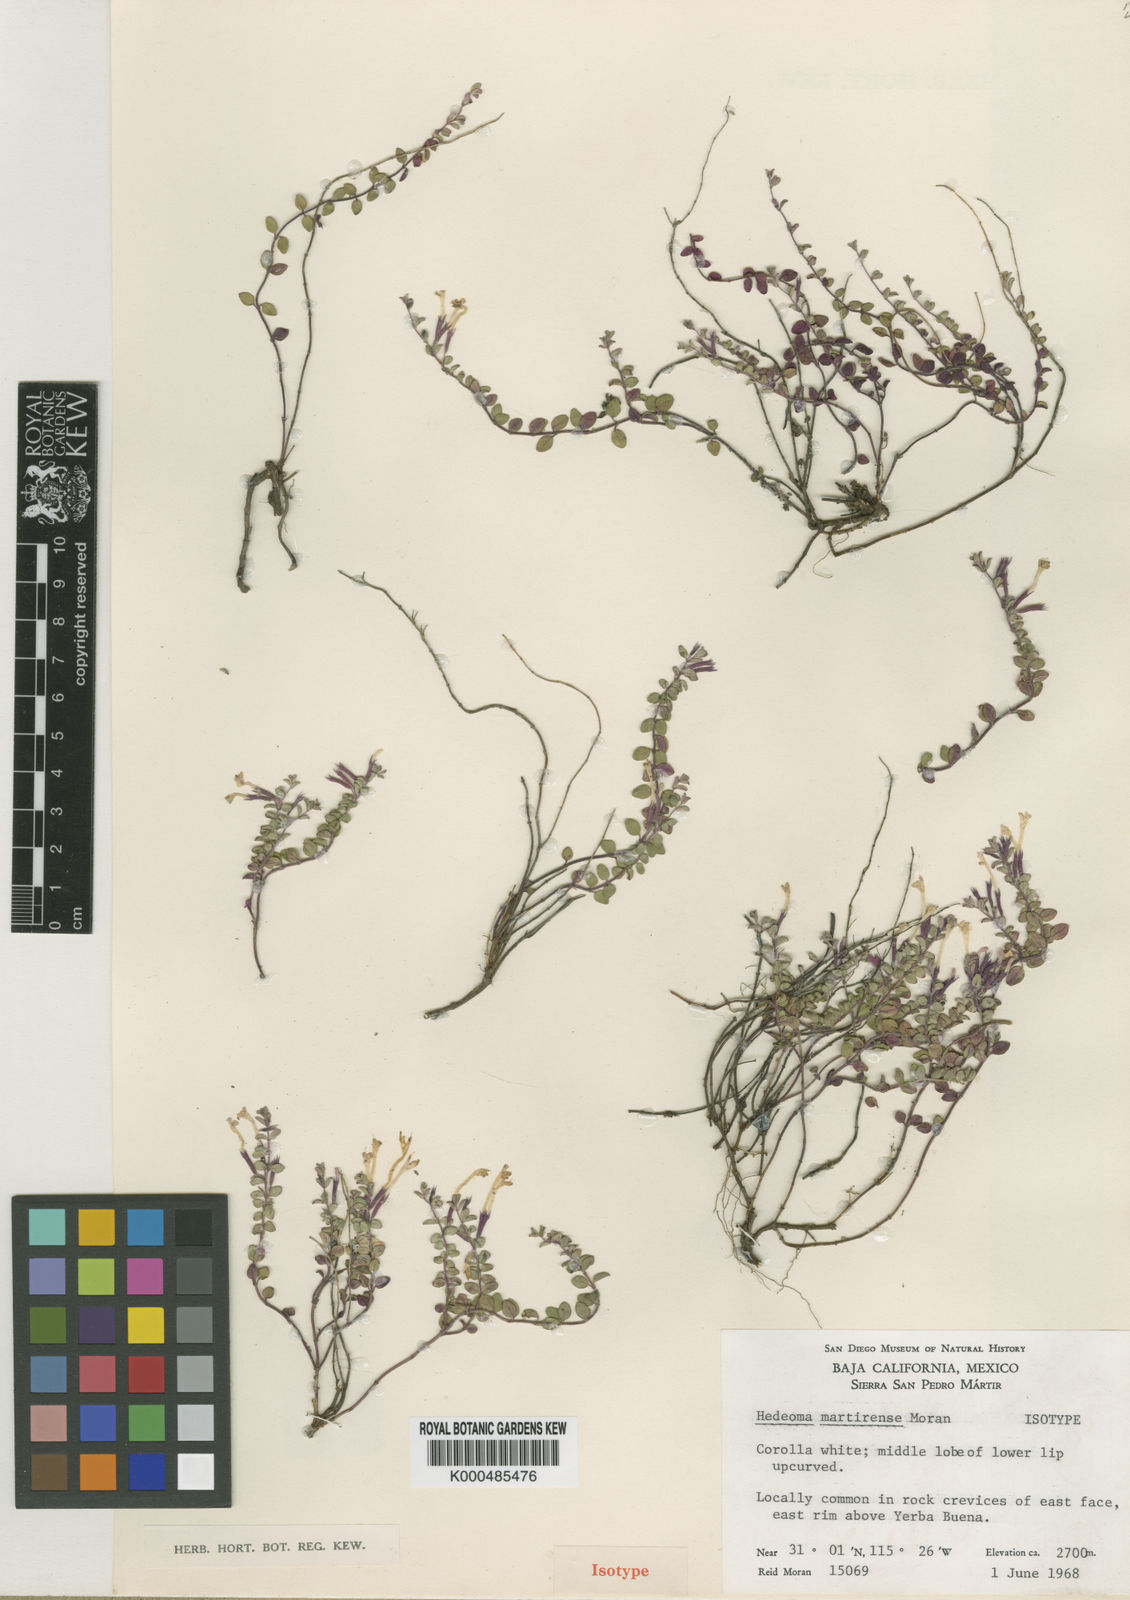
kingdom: Plantae
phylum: Tracheophyta
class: Magnoliopsida
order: Lamiales
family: Lamiaceae
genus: Hedeoma
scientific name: Hedeoma martirensis
